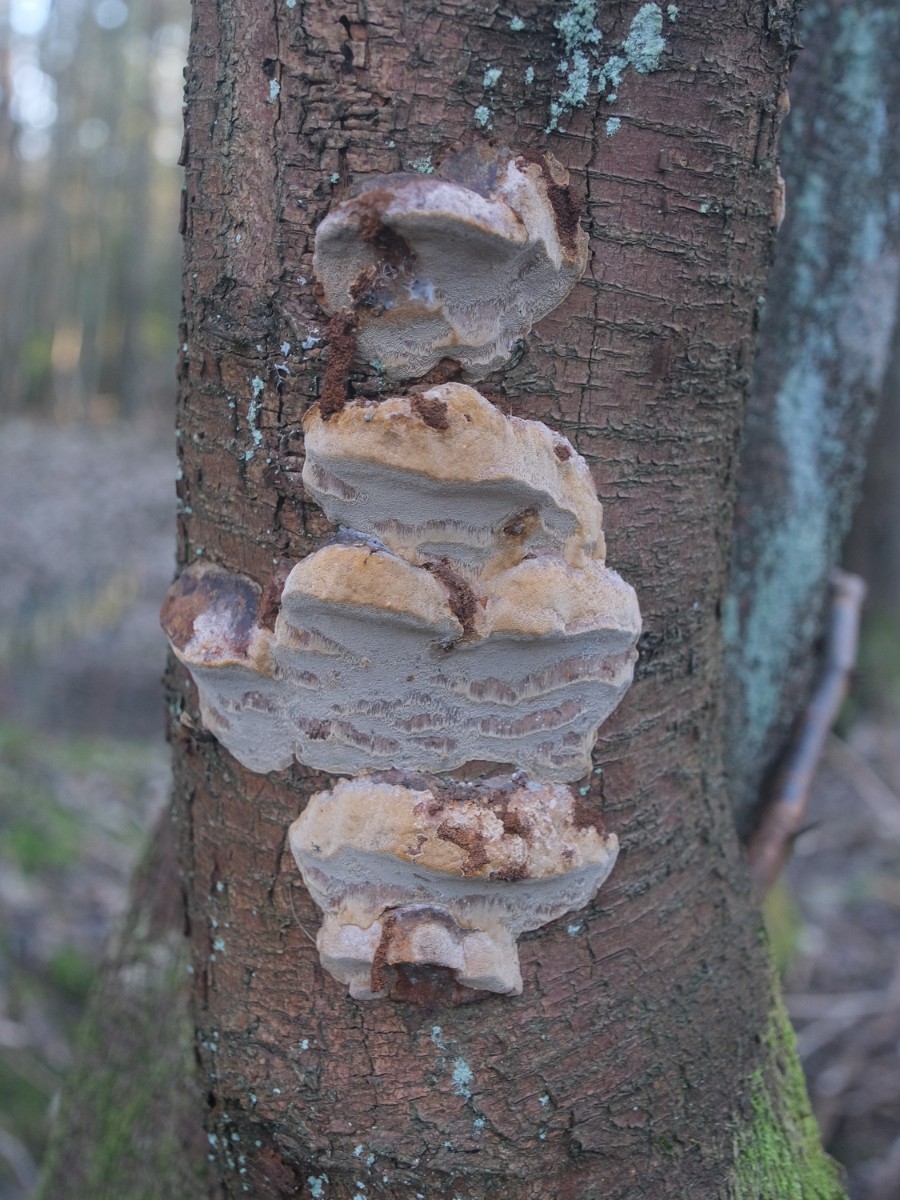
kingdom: Fungi
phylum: Basidiomycota
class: Agaricomycetes
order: Hymenochaetales
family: Hymenochaetaceae
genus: Phellinus
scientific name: Phellinus pomaceus
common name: blomme-ildporesvamp
